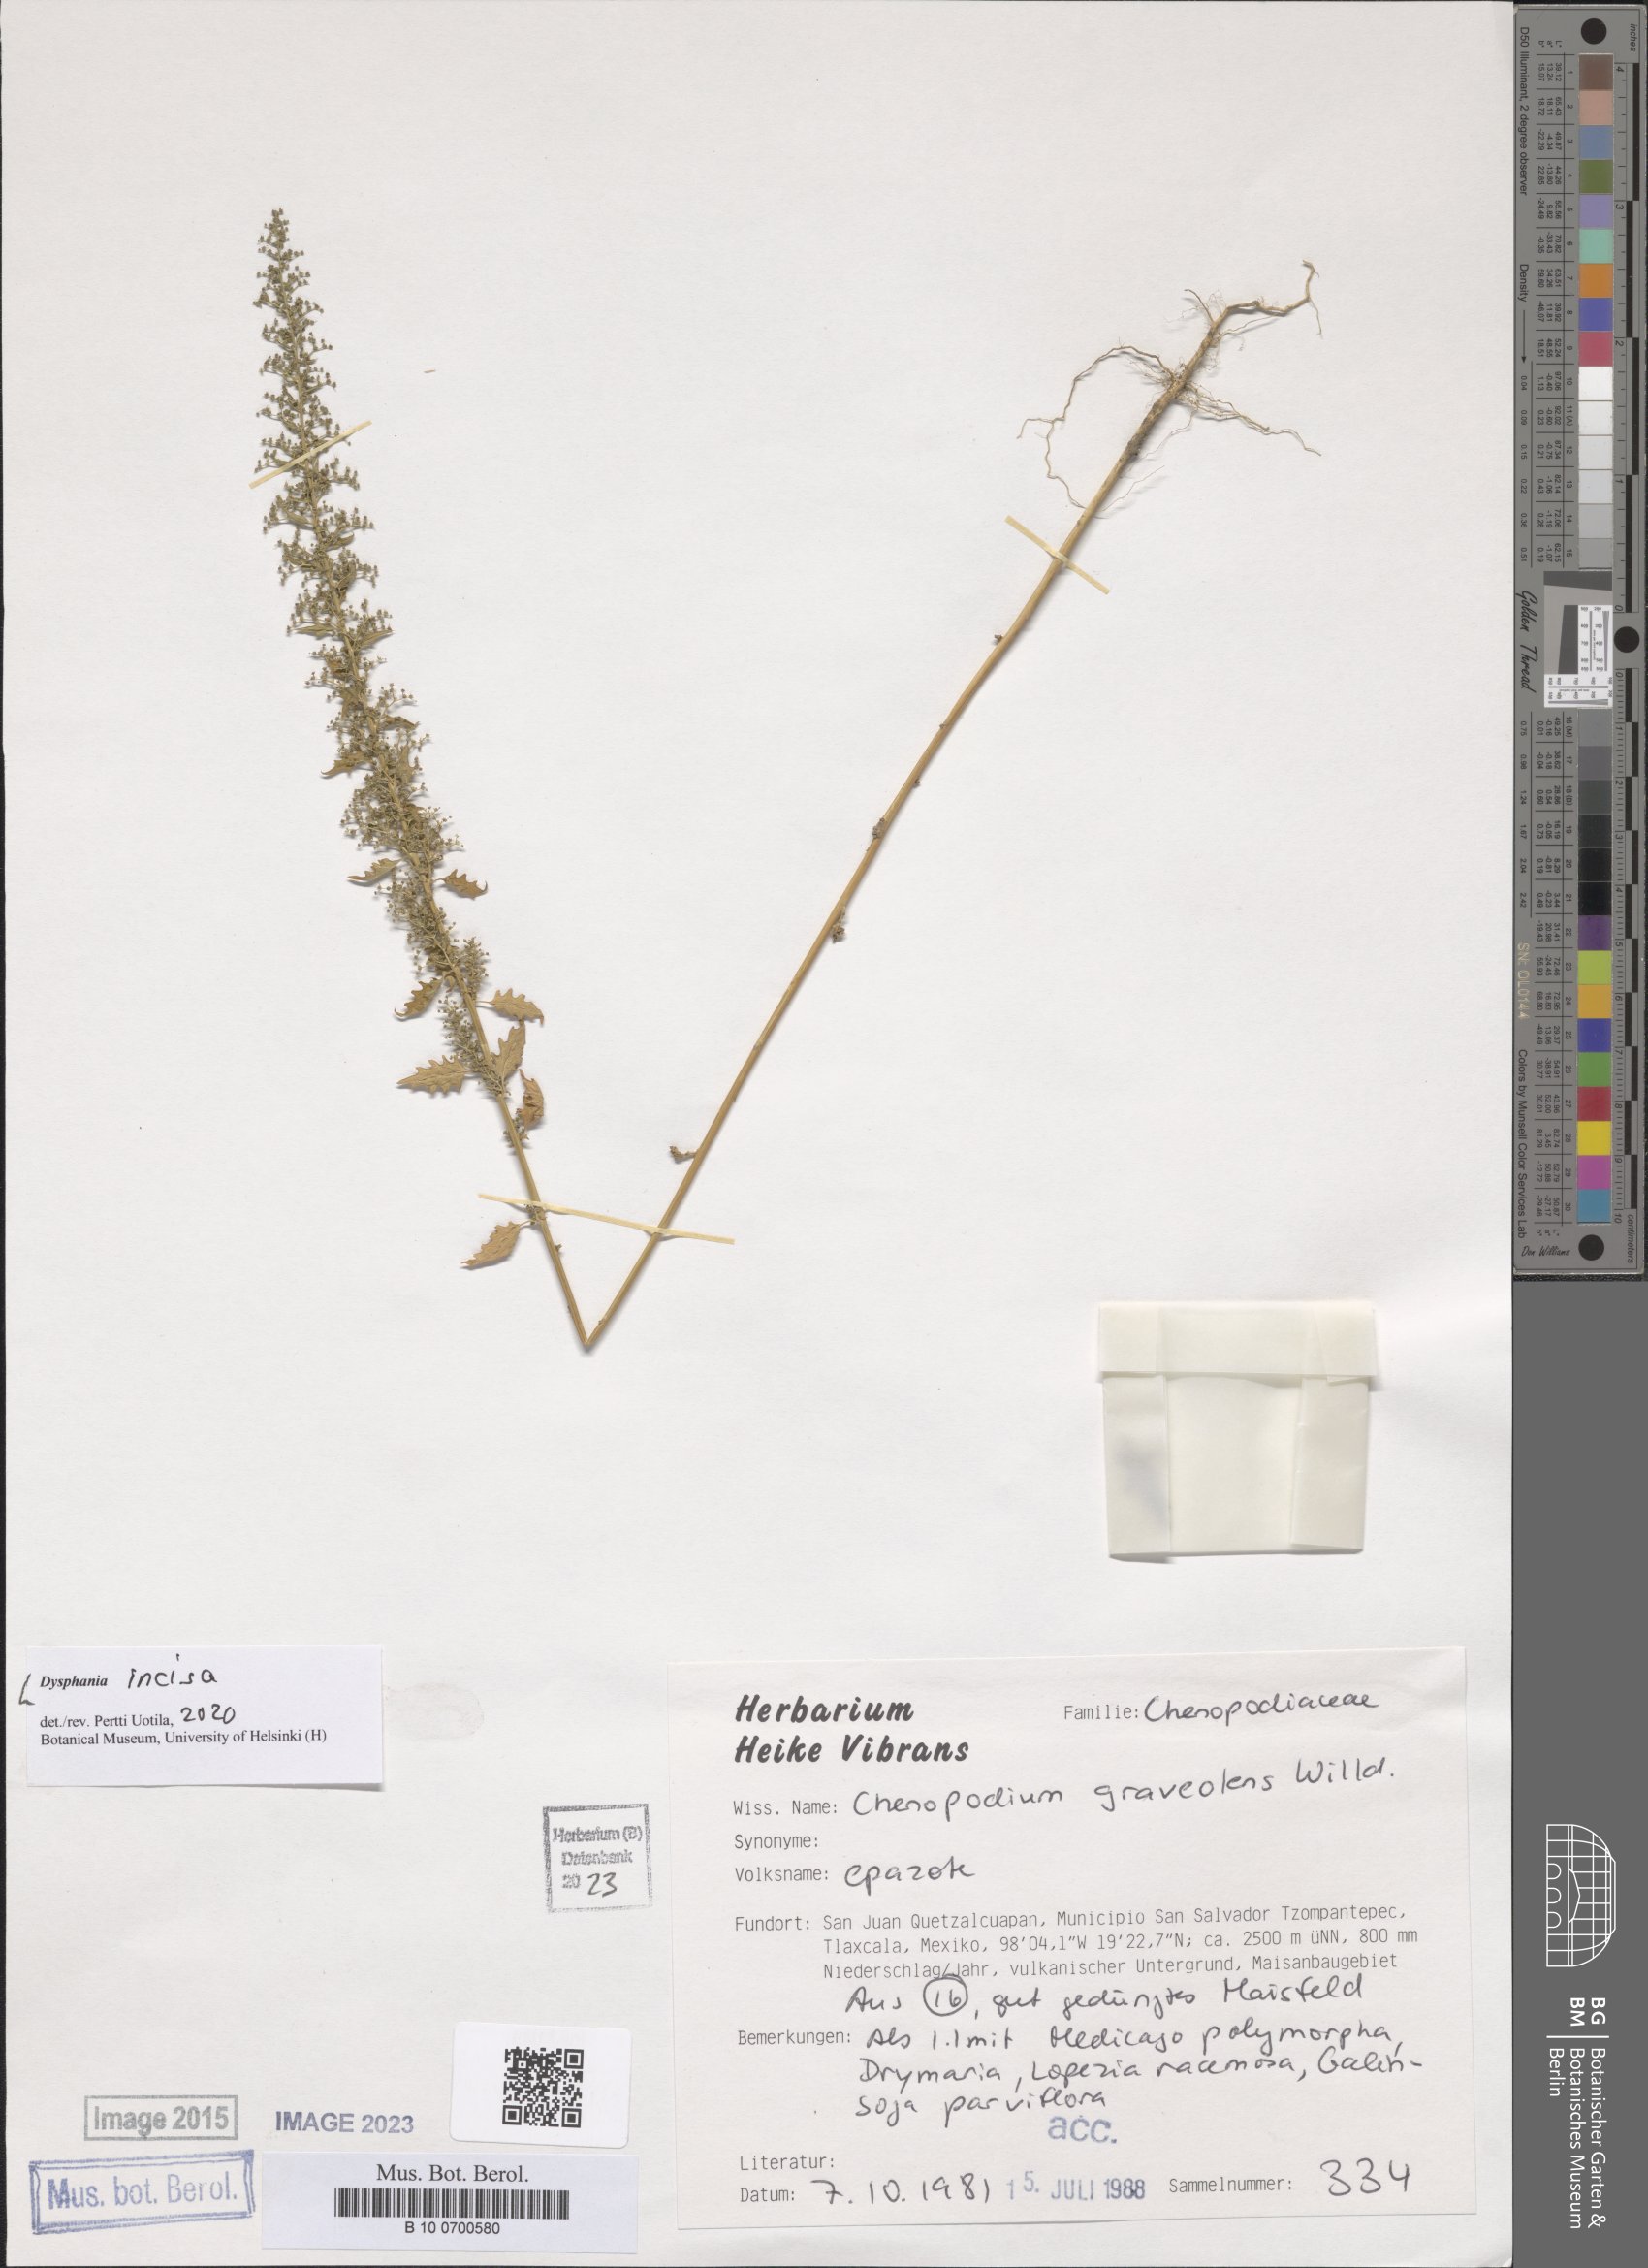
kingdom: Plantae
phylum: Tracheophyta
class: Magnoliopsida
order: Caryophyllales
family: Amaranthaceae
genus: Dysphania
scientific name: Dysphania incisa
